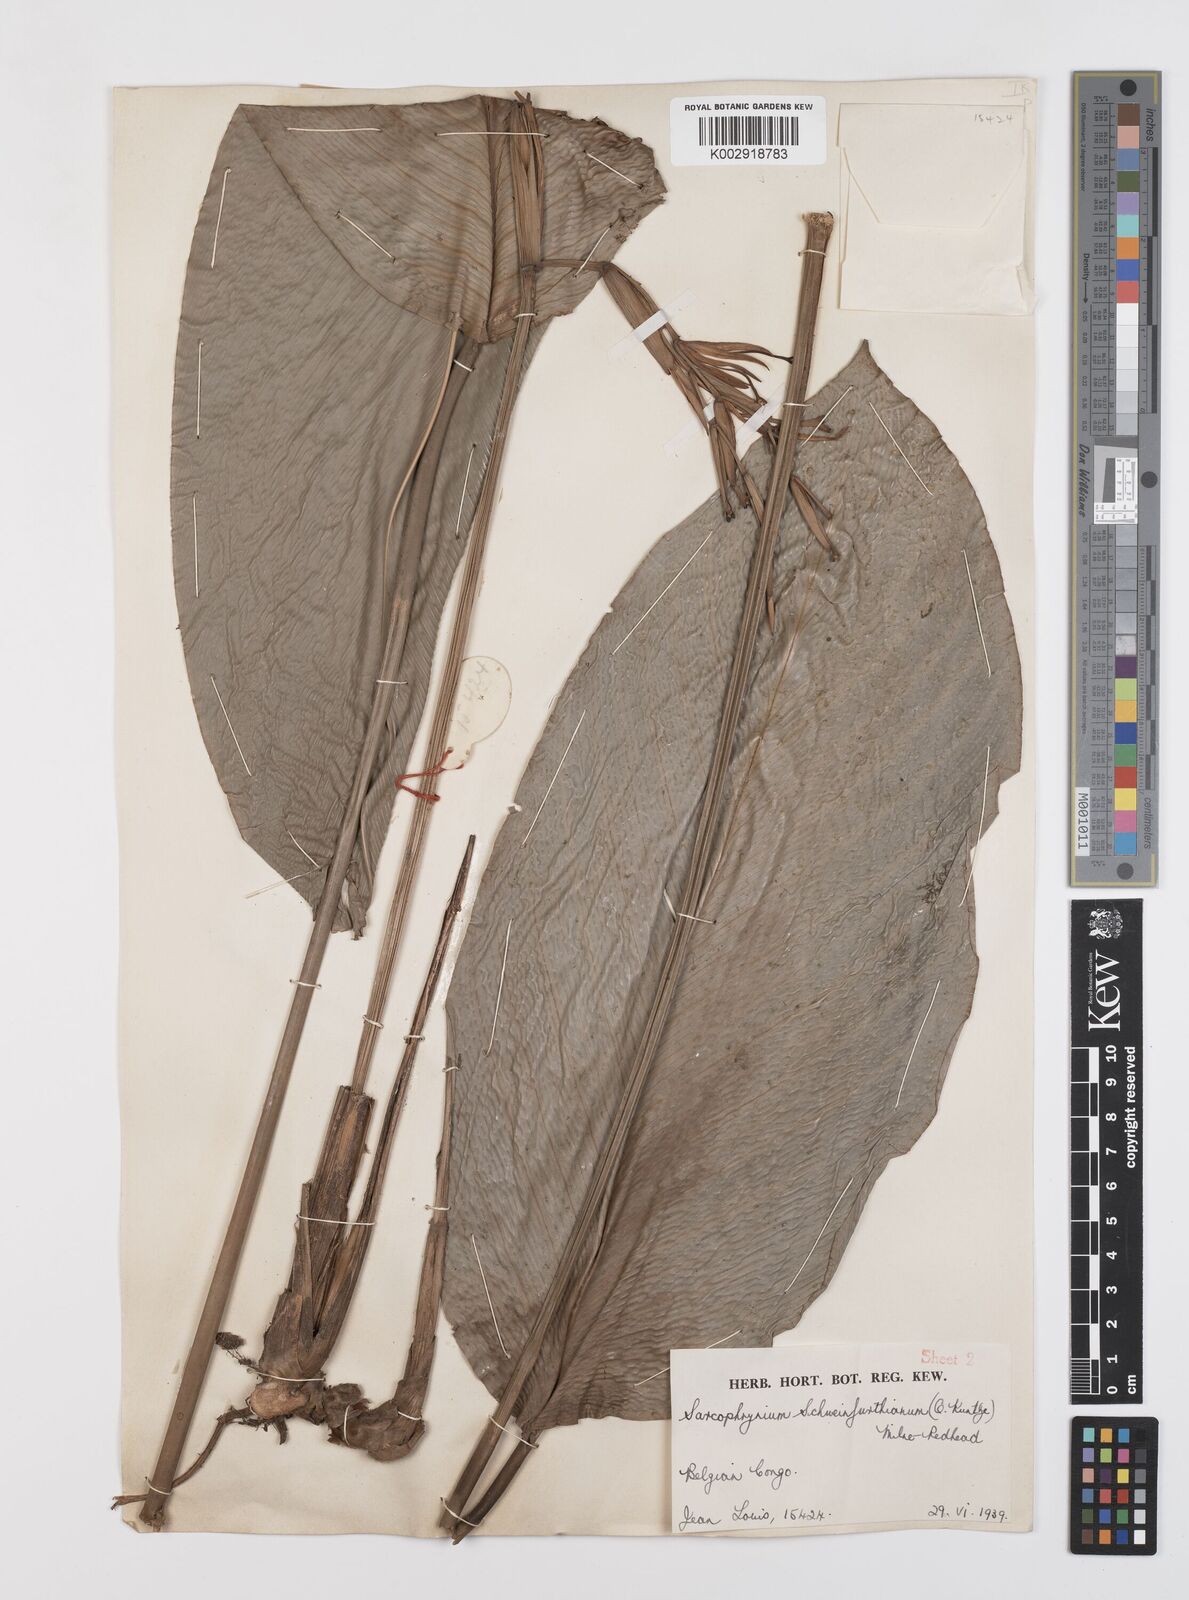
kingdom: Plantae
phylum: Tracheophyta
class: Liliopsida
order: Zingiberales
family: Marantaceae
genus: Sarcophrynium
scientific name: Sarcophrynium schweinfurthianum
